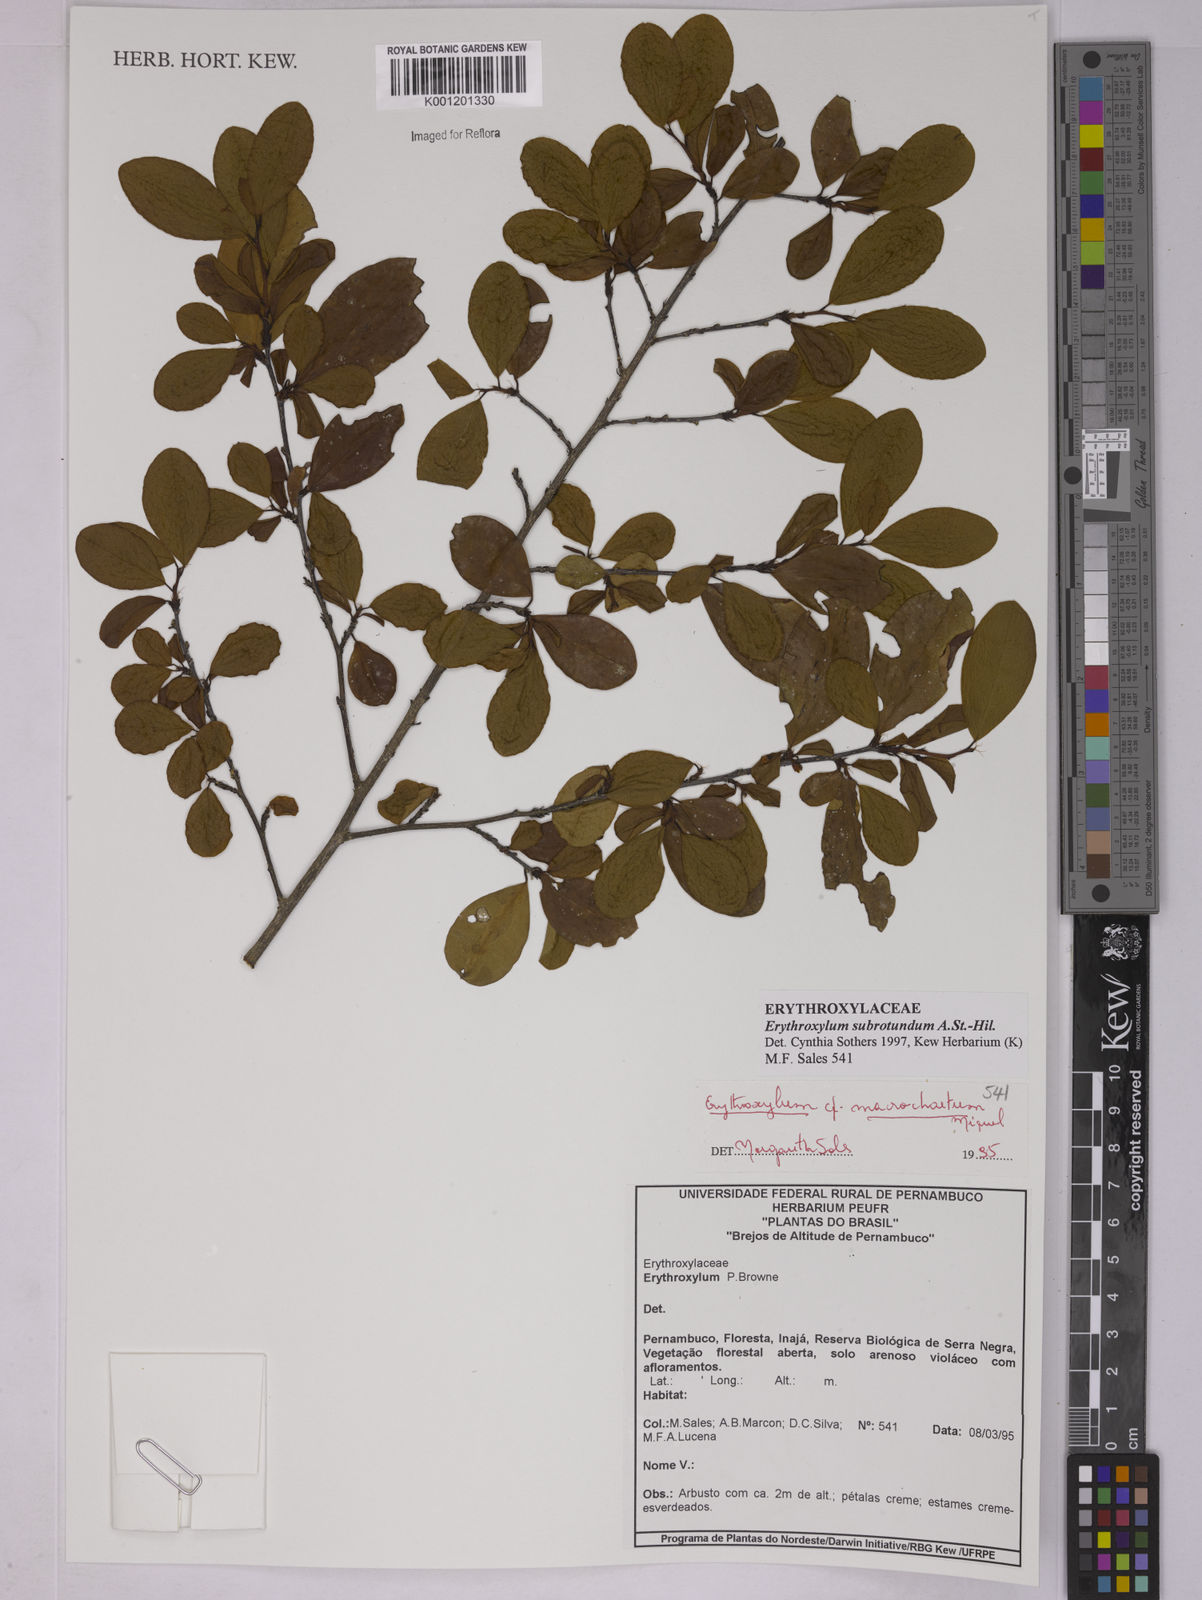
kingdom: Plantae
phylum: Tracheophyta
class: Magnoliopsida
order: Malpighiales
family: Erythroxylaceae
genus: Erythroxylum
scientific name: Erythroxylum subrotundum
